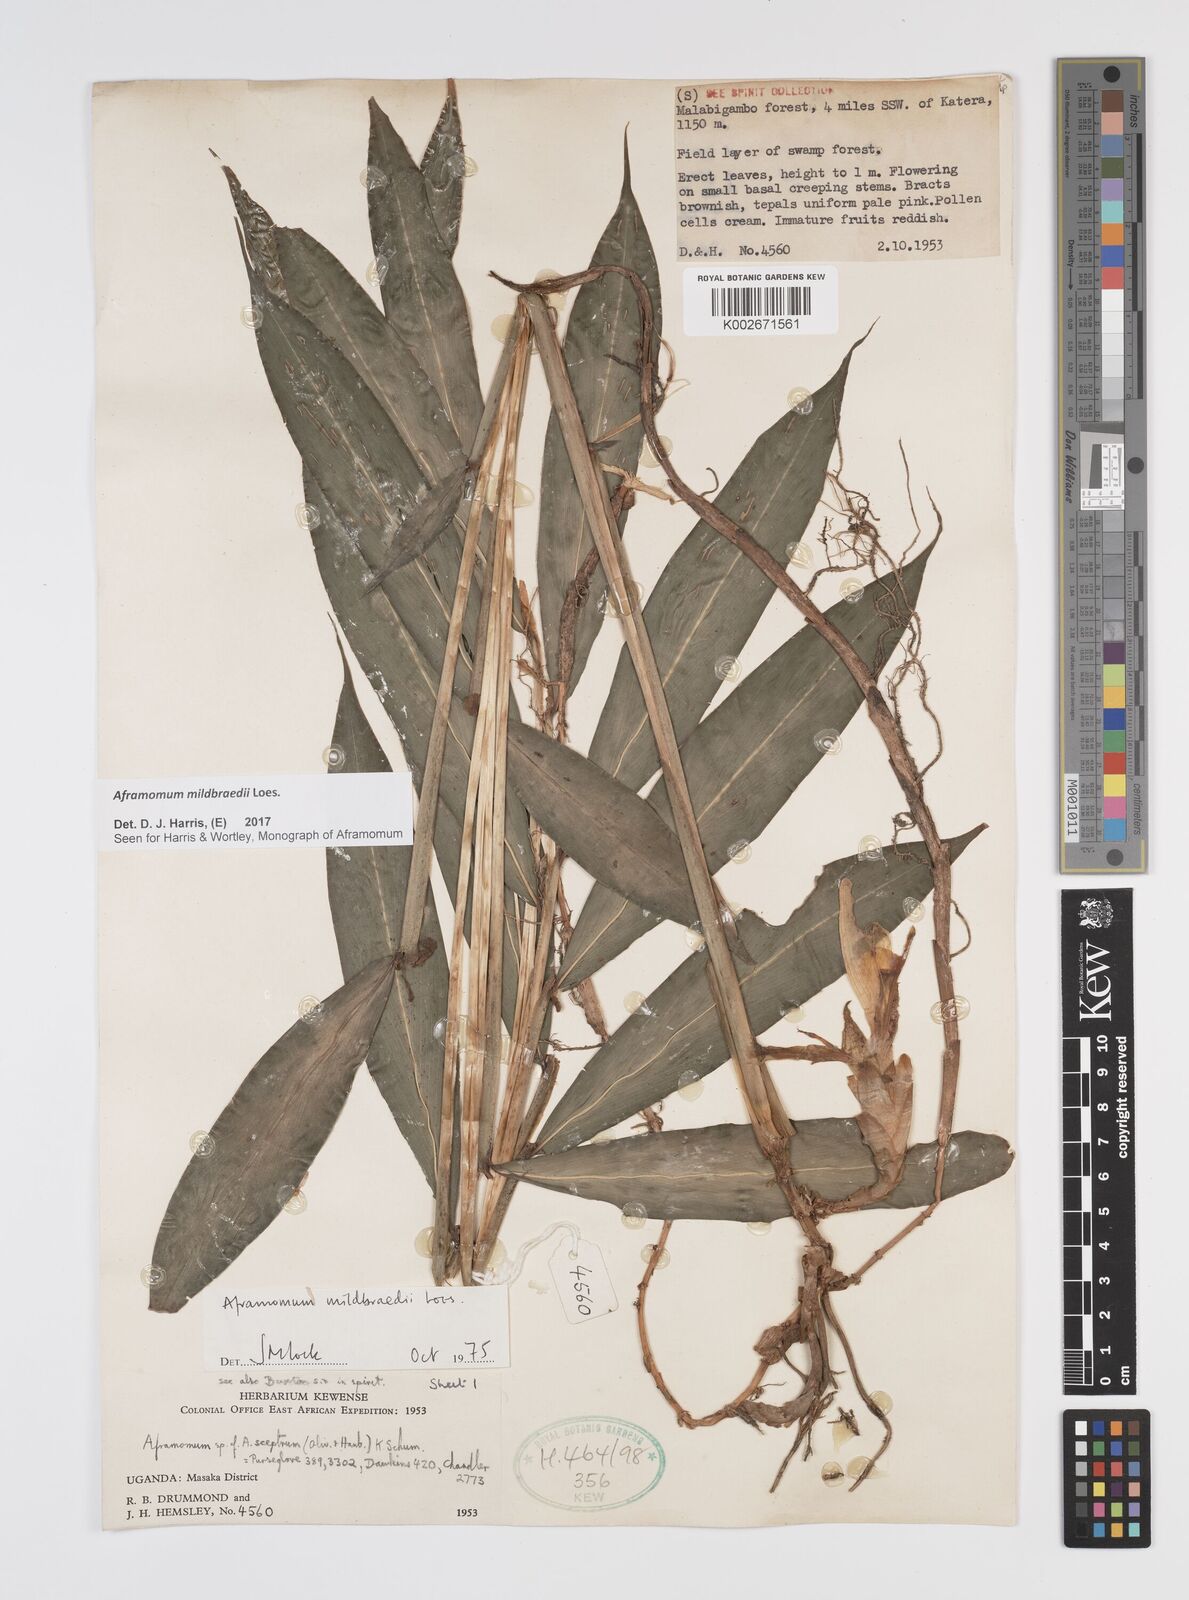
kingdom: Plantae
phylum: Tracheophyta
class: Liliopsida
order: Zingiberales
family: Zingiberaceae
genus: Aframomum
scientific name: Aframomum mildbraedii
